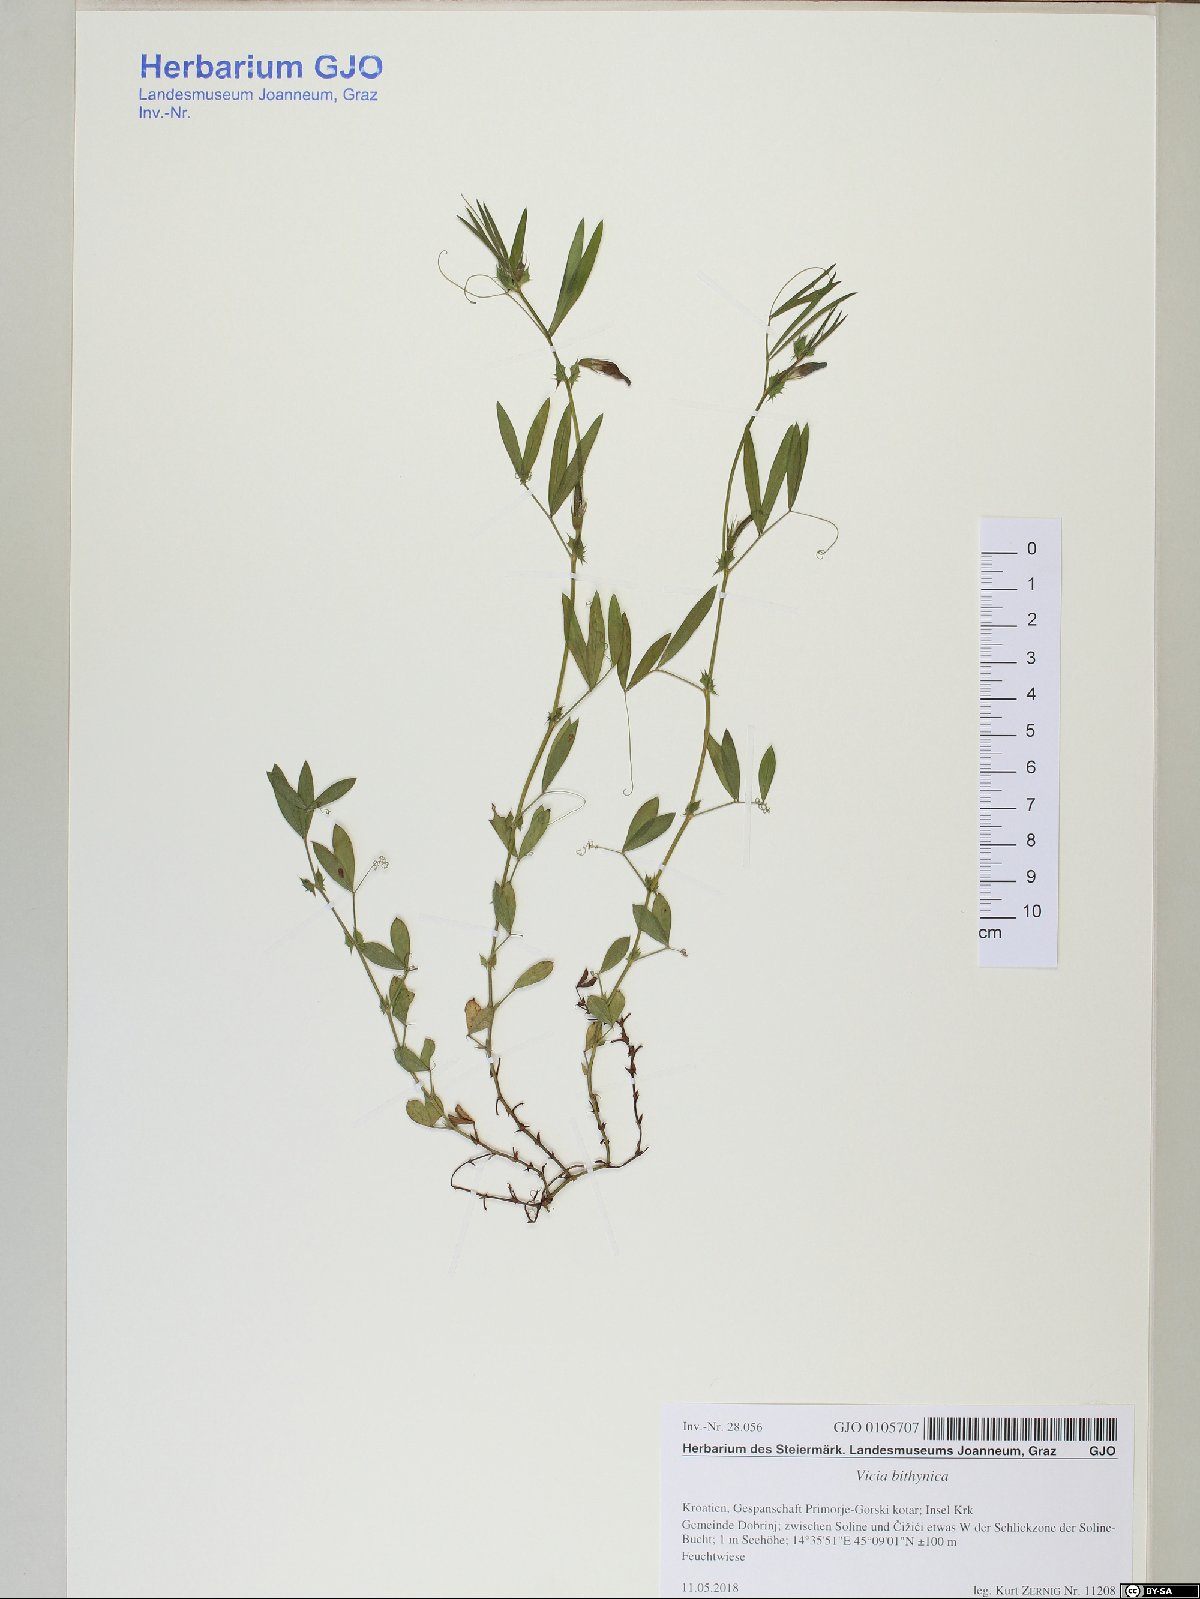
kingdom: Plantae
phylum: Tracheophyta
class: Magnoliopsida
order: Fabales
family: Fabaceae
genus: Vicia
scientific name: Vicia bithynica
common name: Bithynian vetch
